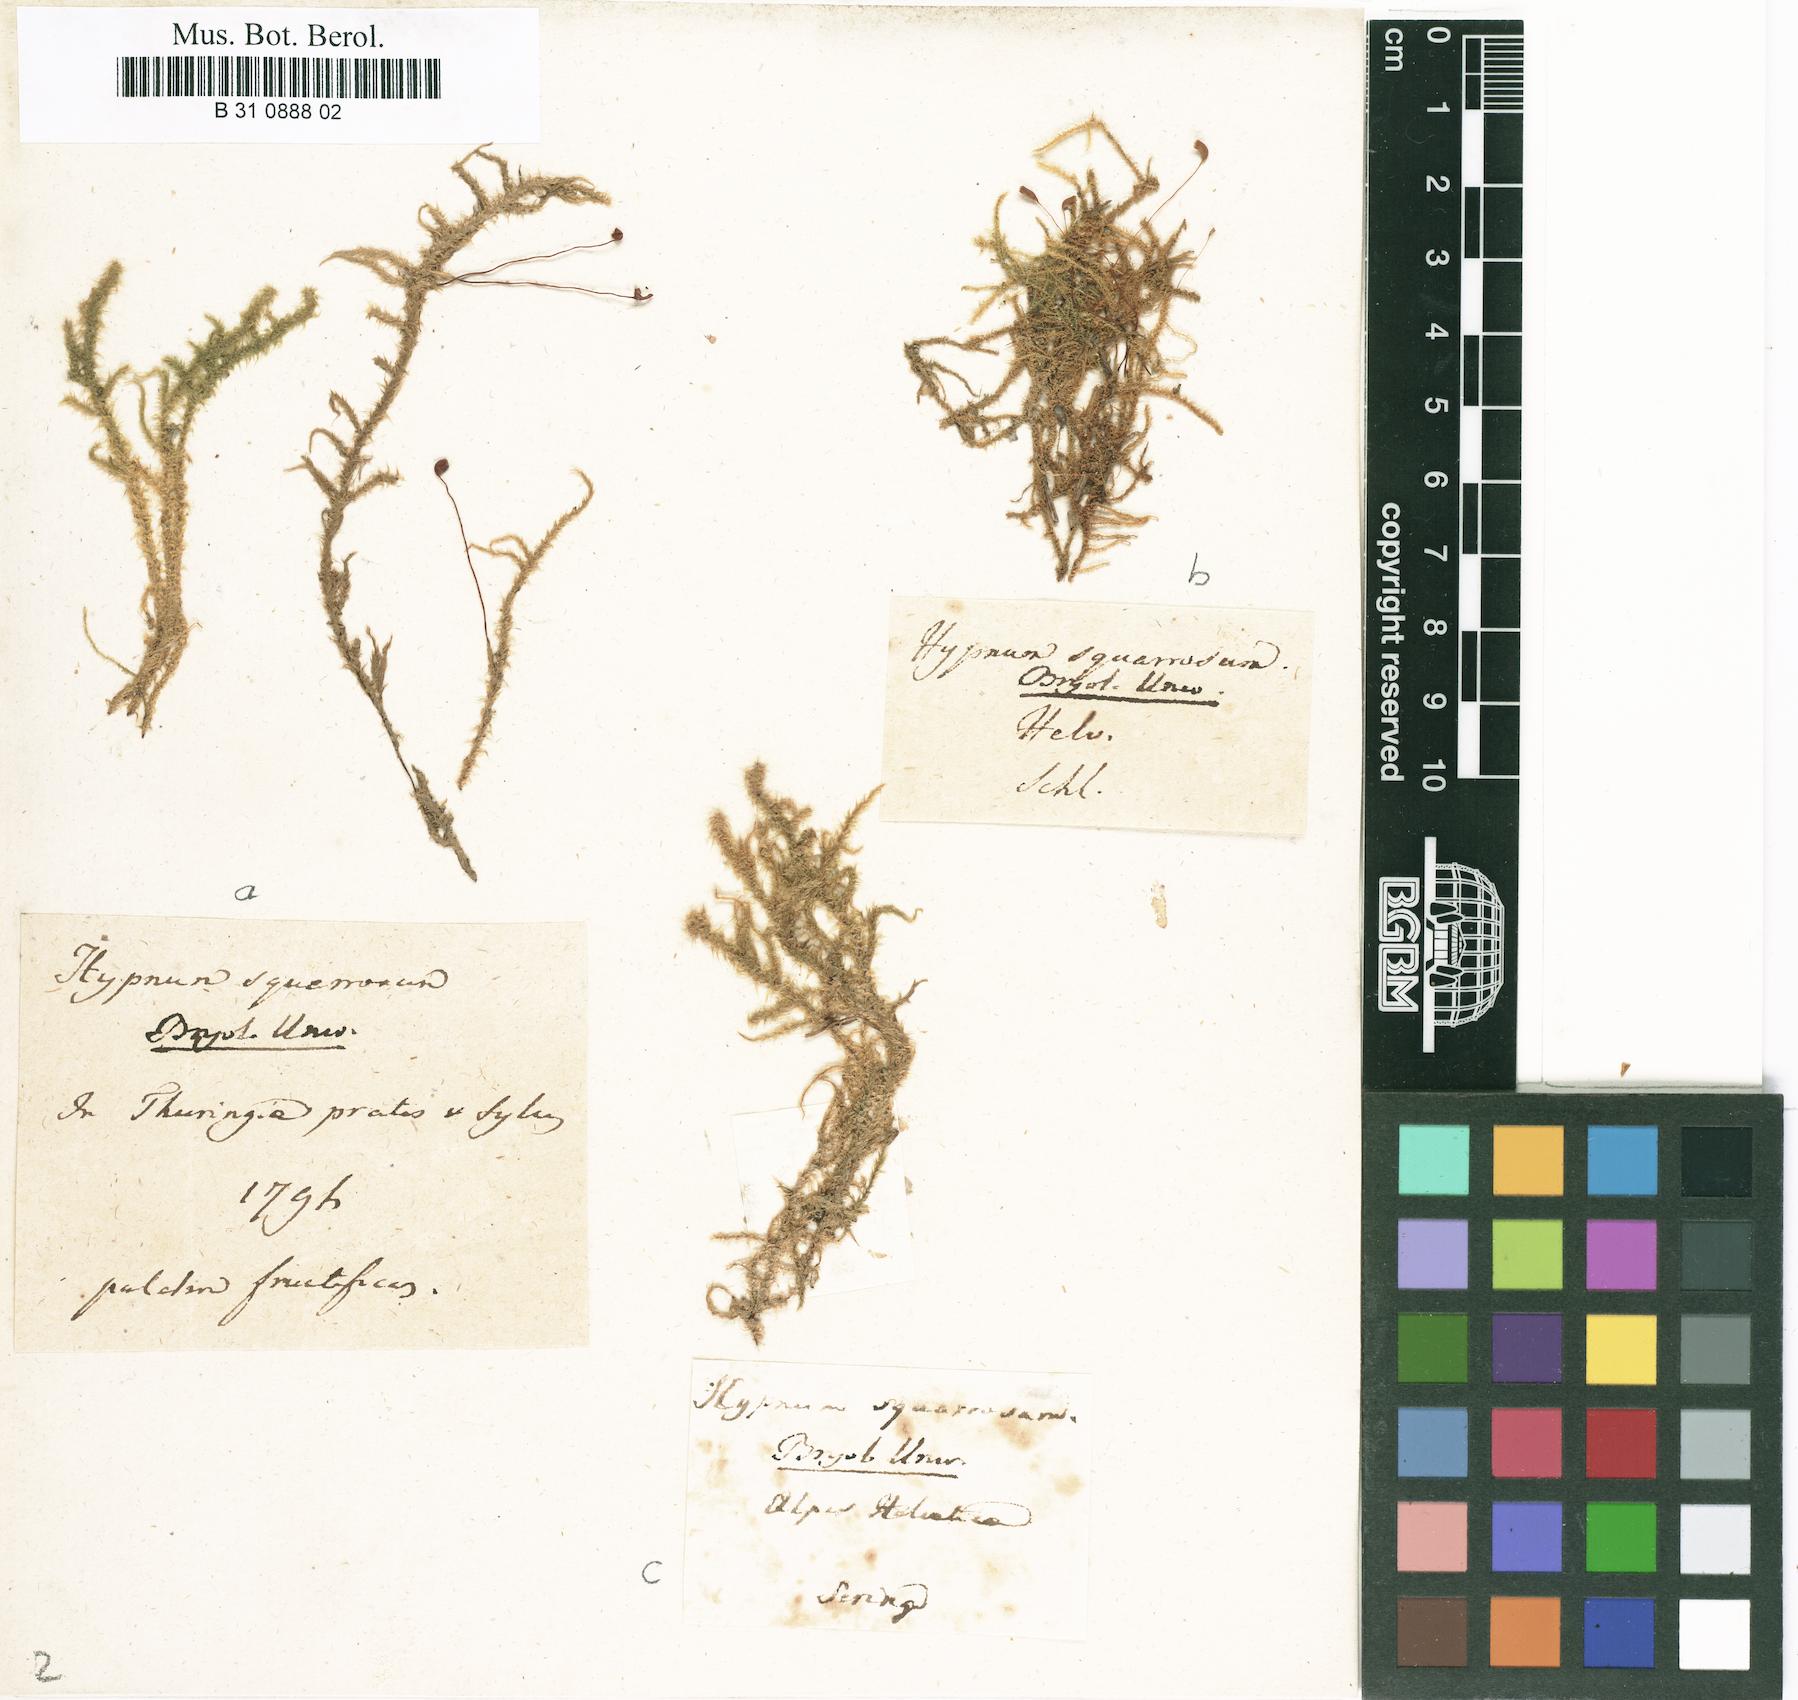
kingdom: Plantae
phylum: Bryophyta
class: Bryopsida
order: Hypnales
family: Hylocomiaceae
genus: Rhytidiadelphus
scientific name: Rhytidiadelphus squarrosus
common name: Springy turf-moss
